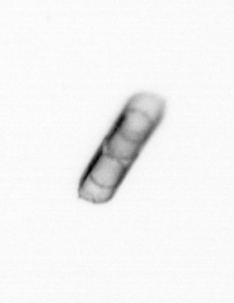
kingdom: Chromista
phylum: Ochrophyta
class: Bacillariophyceae
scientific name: Bacillariophyceae
